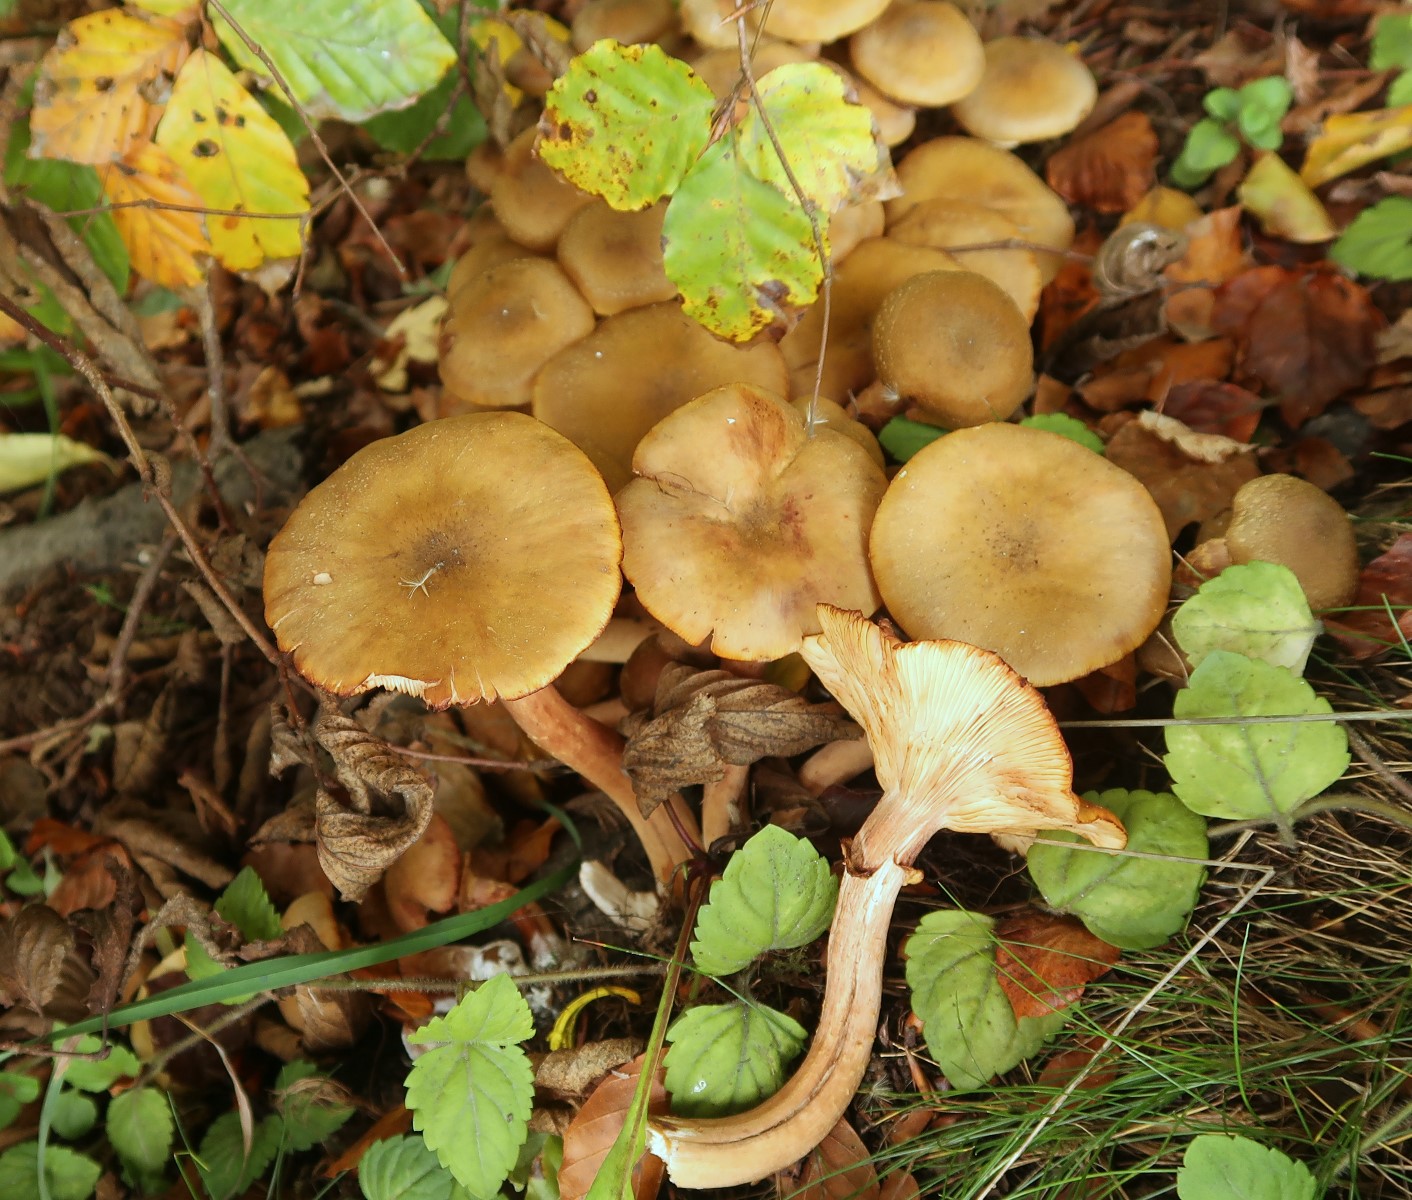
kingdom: Fungi
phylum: Basidiomycota
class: Agaricomycetes
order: Agaricales
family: Physalacriaceae
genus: Armillaria
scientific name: Armillaria mellea
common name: ægte honningsvamp
